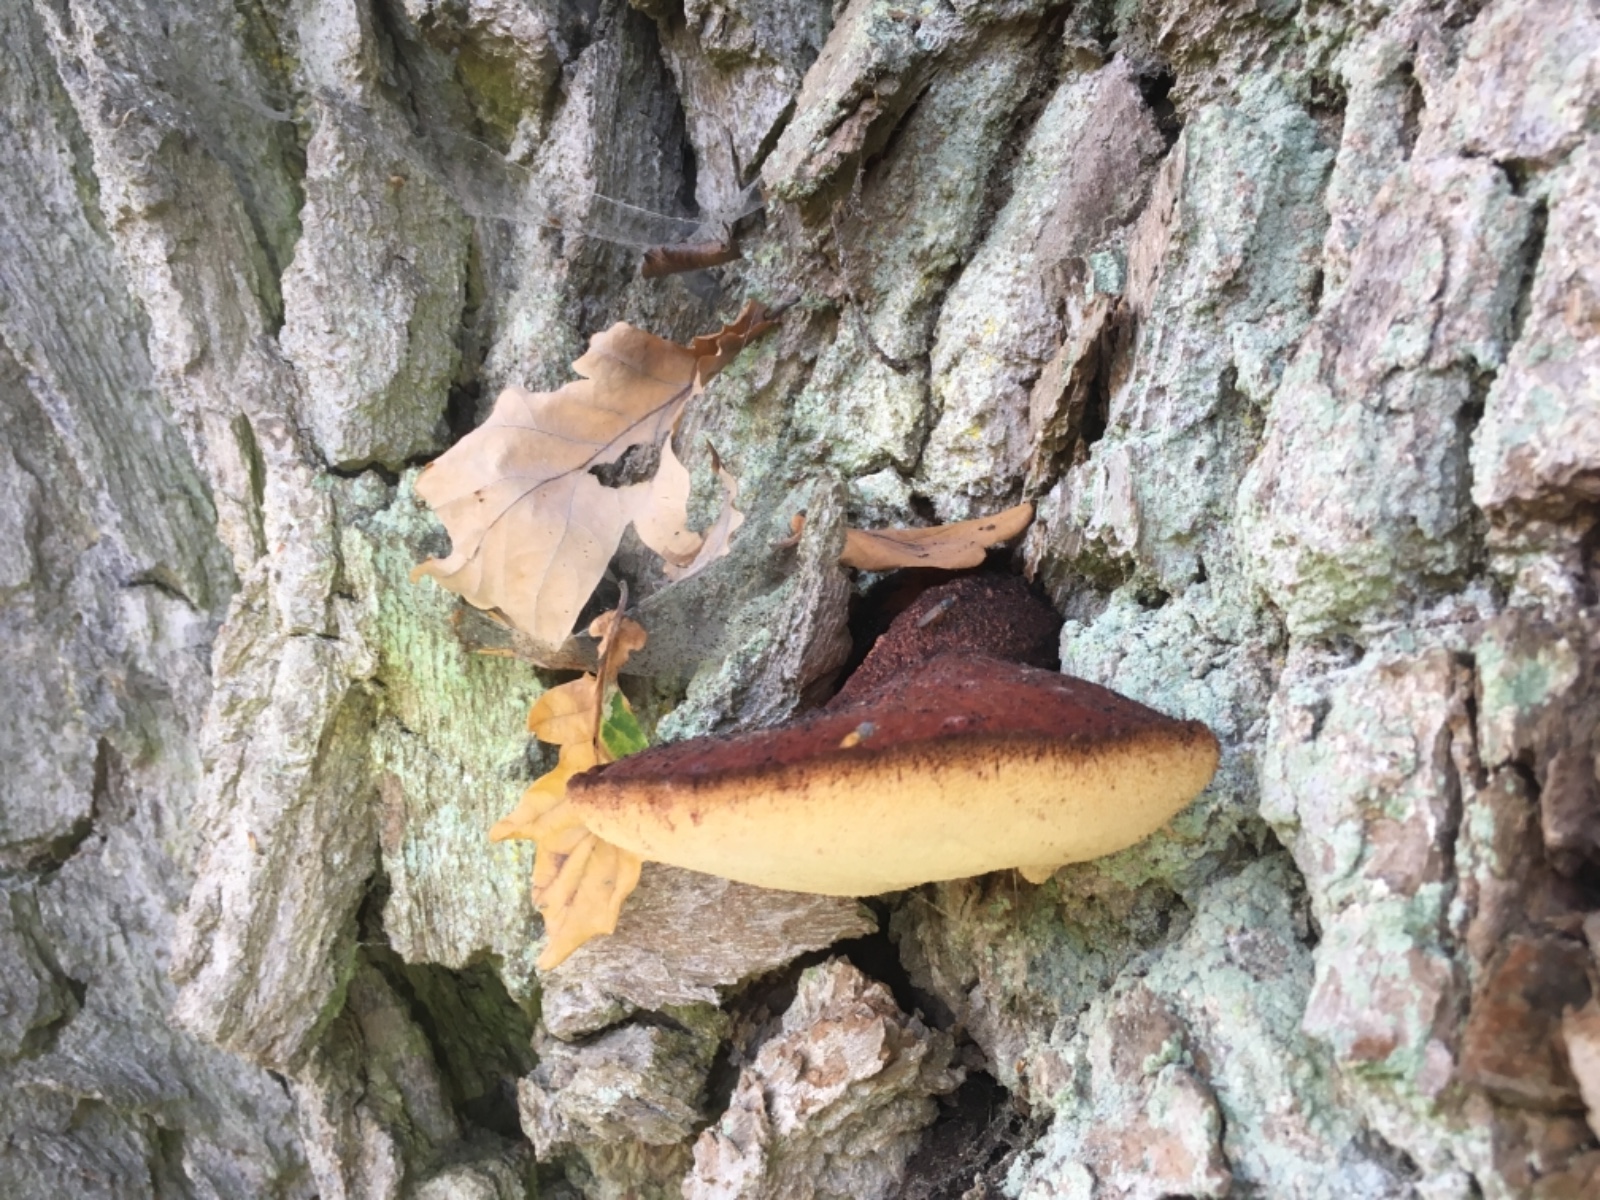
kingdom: Fungi
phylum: Basidiomycota
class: Agaricomycetes
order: Agaricales
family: Fistulinaceae
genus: Fistulina
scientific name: Fistulina hepatica
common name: oksetunge
